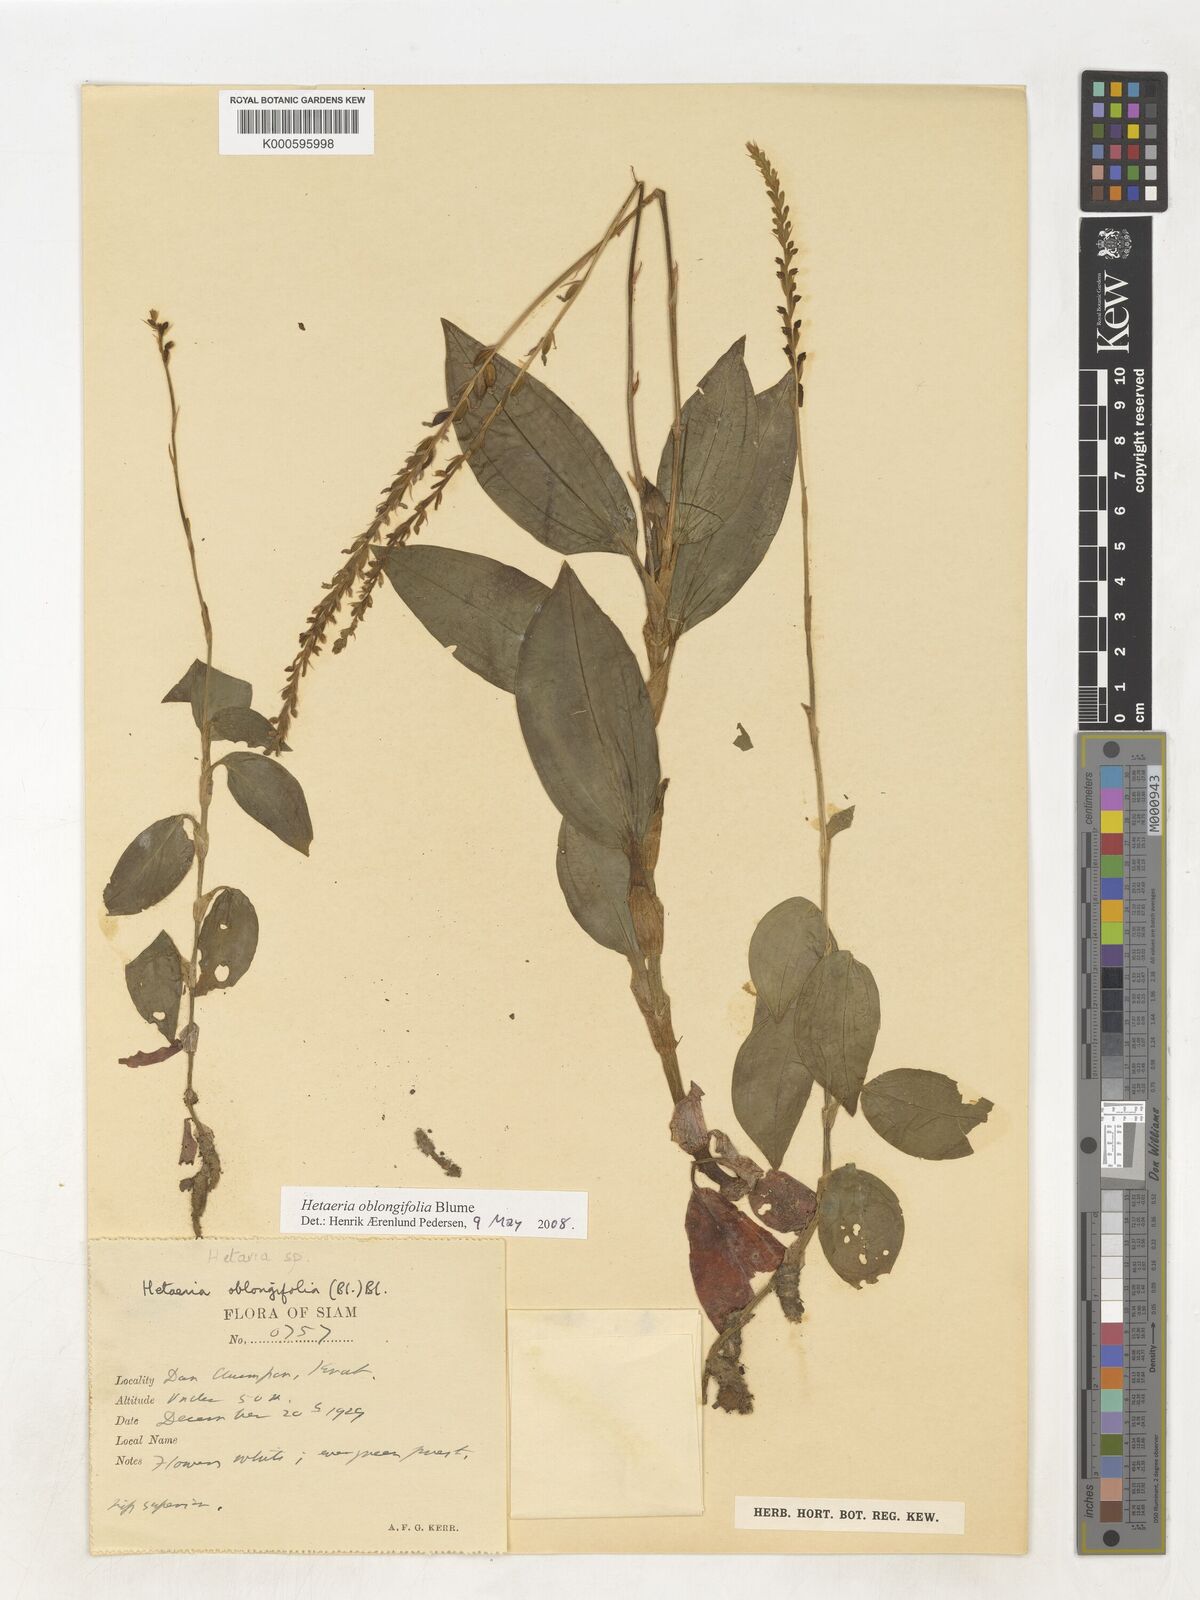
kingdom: Plantae
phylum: Tracheophyta
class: Liliopsida
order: Asparagales
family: Orchidaceae
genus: Hetaeria
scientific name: Hetaeria oblongifolia
